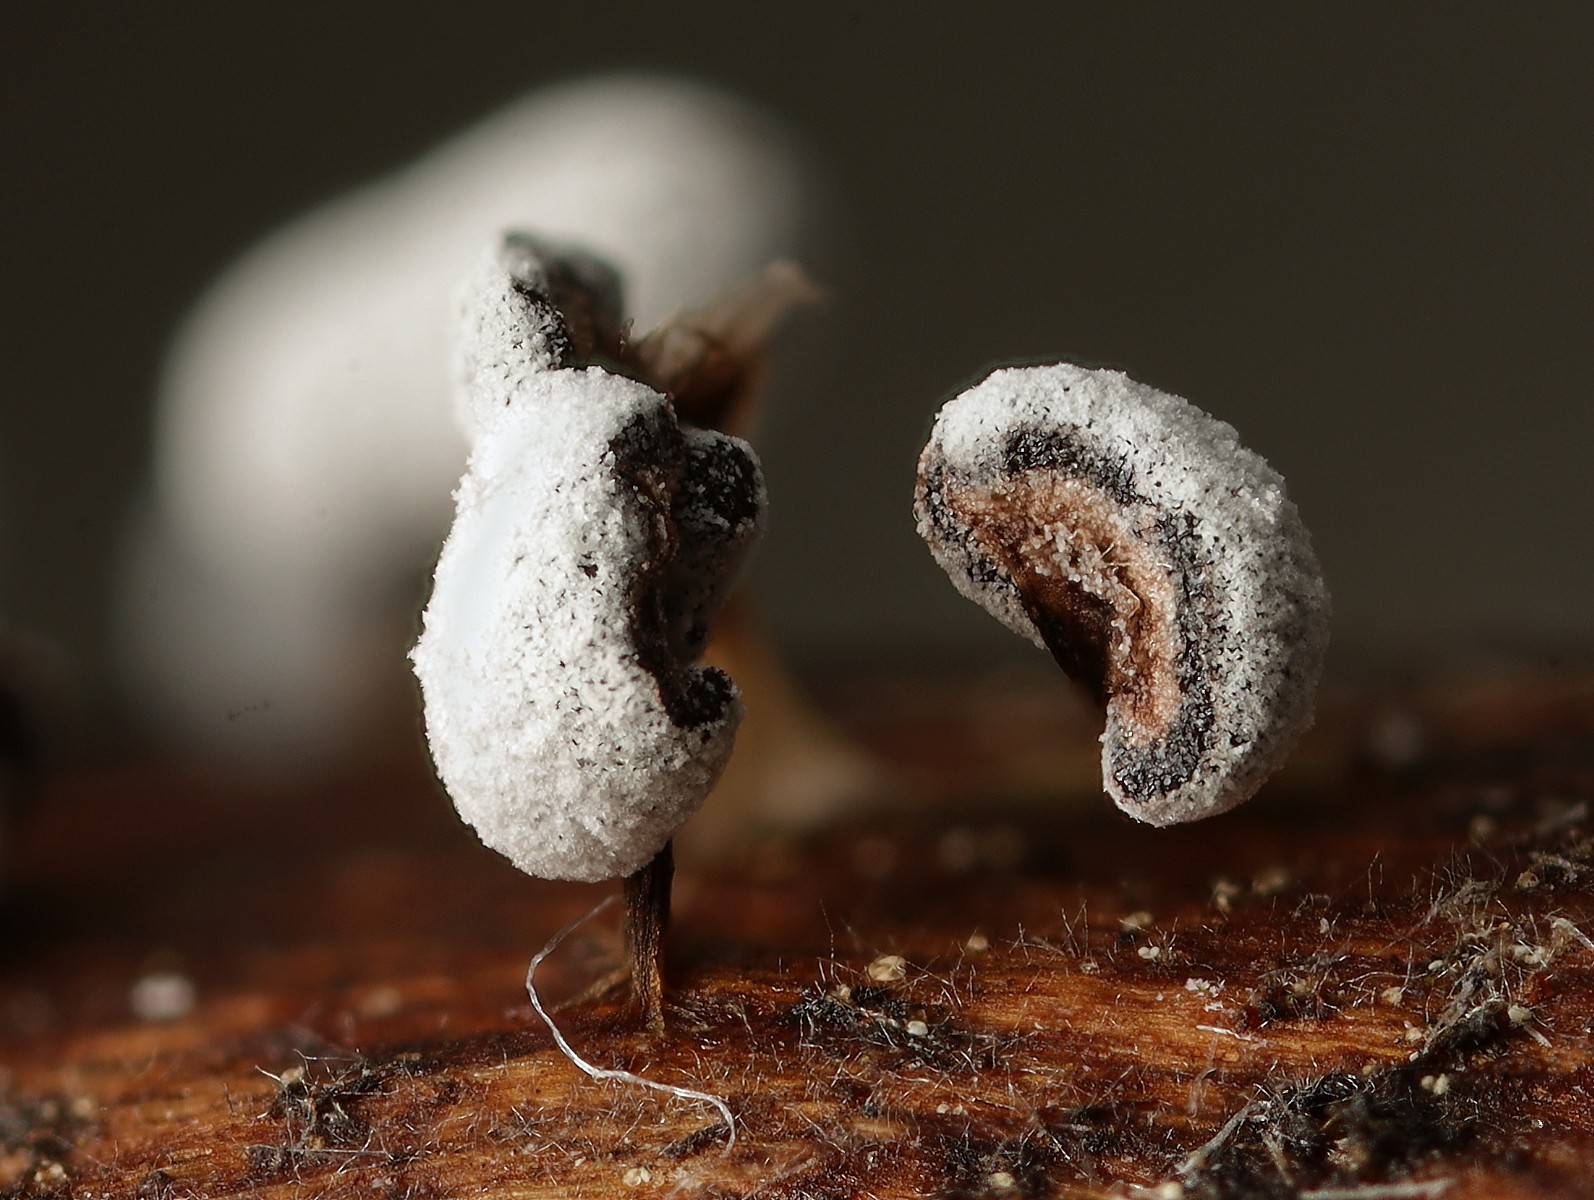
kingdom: Protozoa
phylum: Mycetozoa
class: Myxomycetes
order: Physarales
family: Didymiaceae
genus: Didymium
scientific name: Didymium melanospermum
